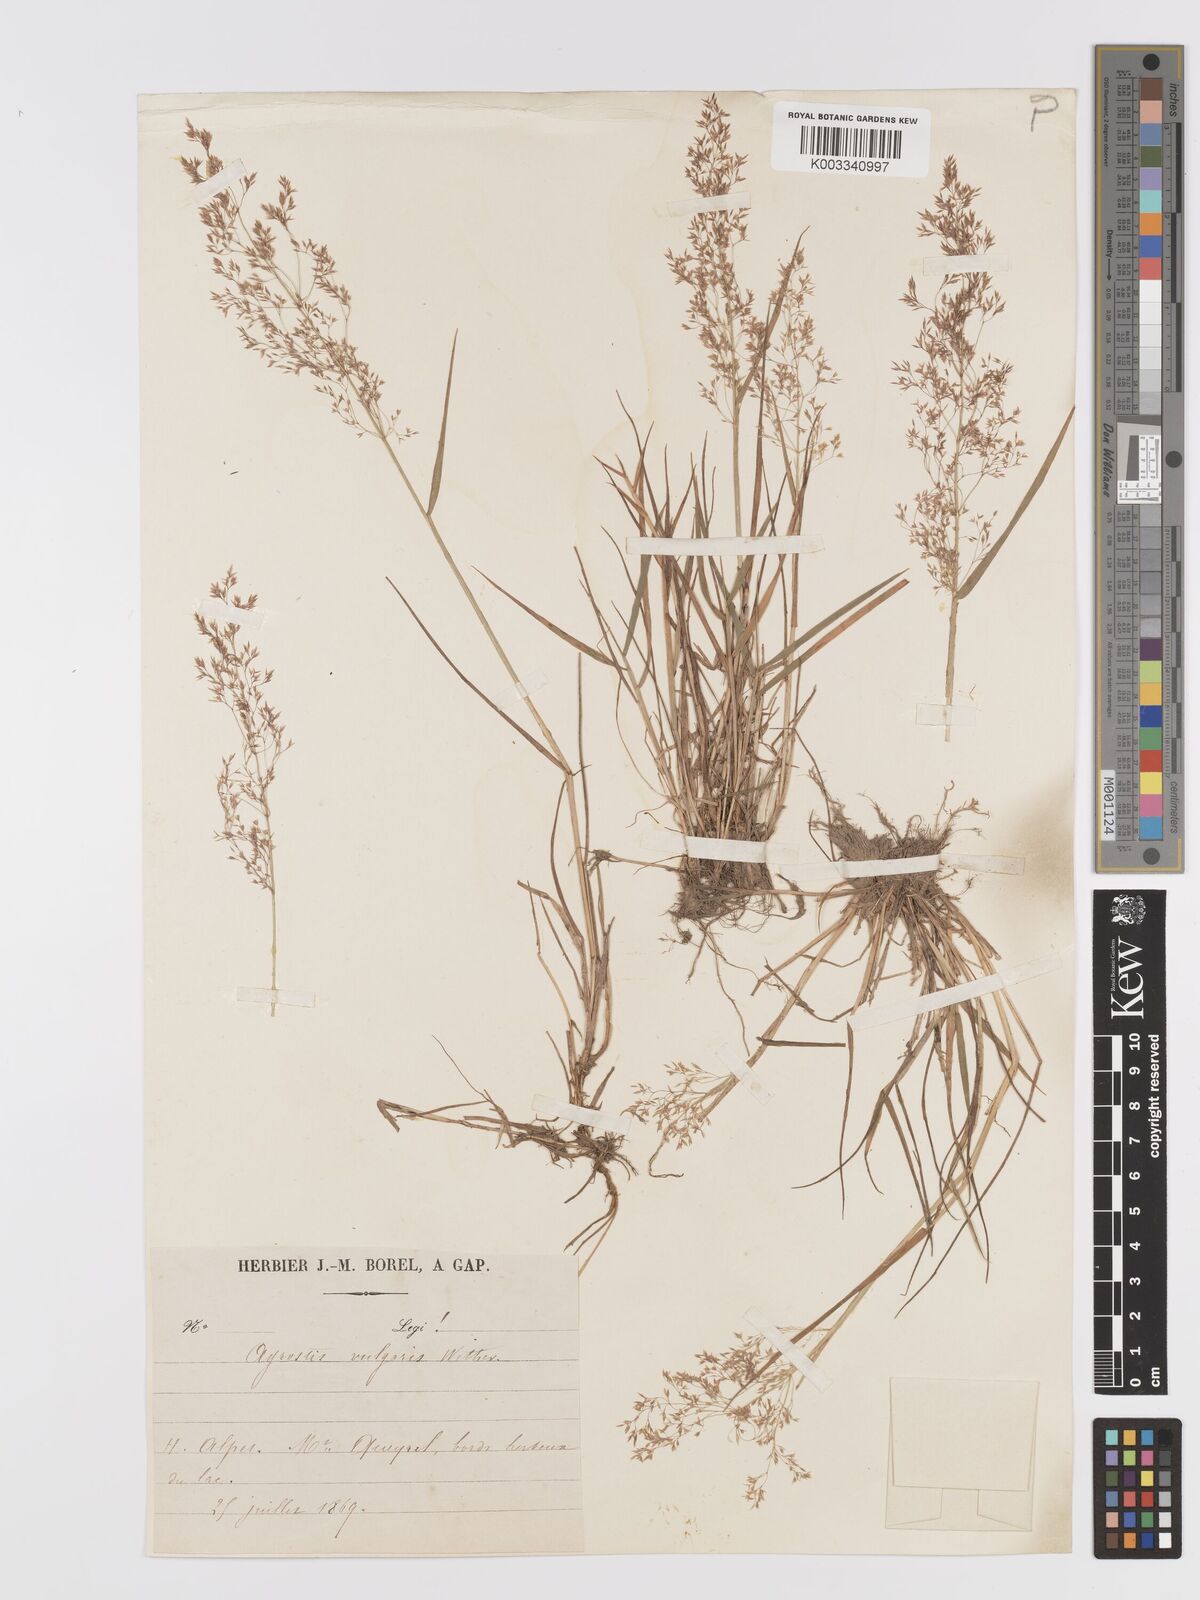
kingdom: Plantae
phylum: Tracheophyta
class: Liliopsida
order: Poales
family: Poaceae
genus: Agrostis
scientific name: Agrostis capillaris
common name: Colonial bentgrass
